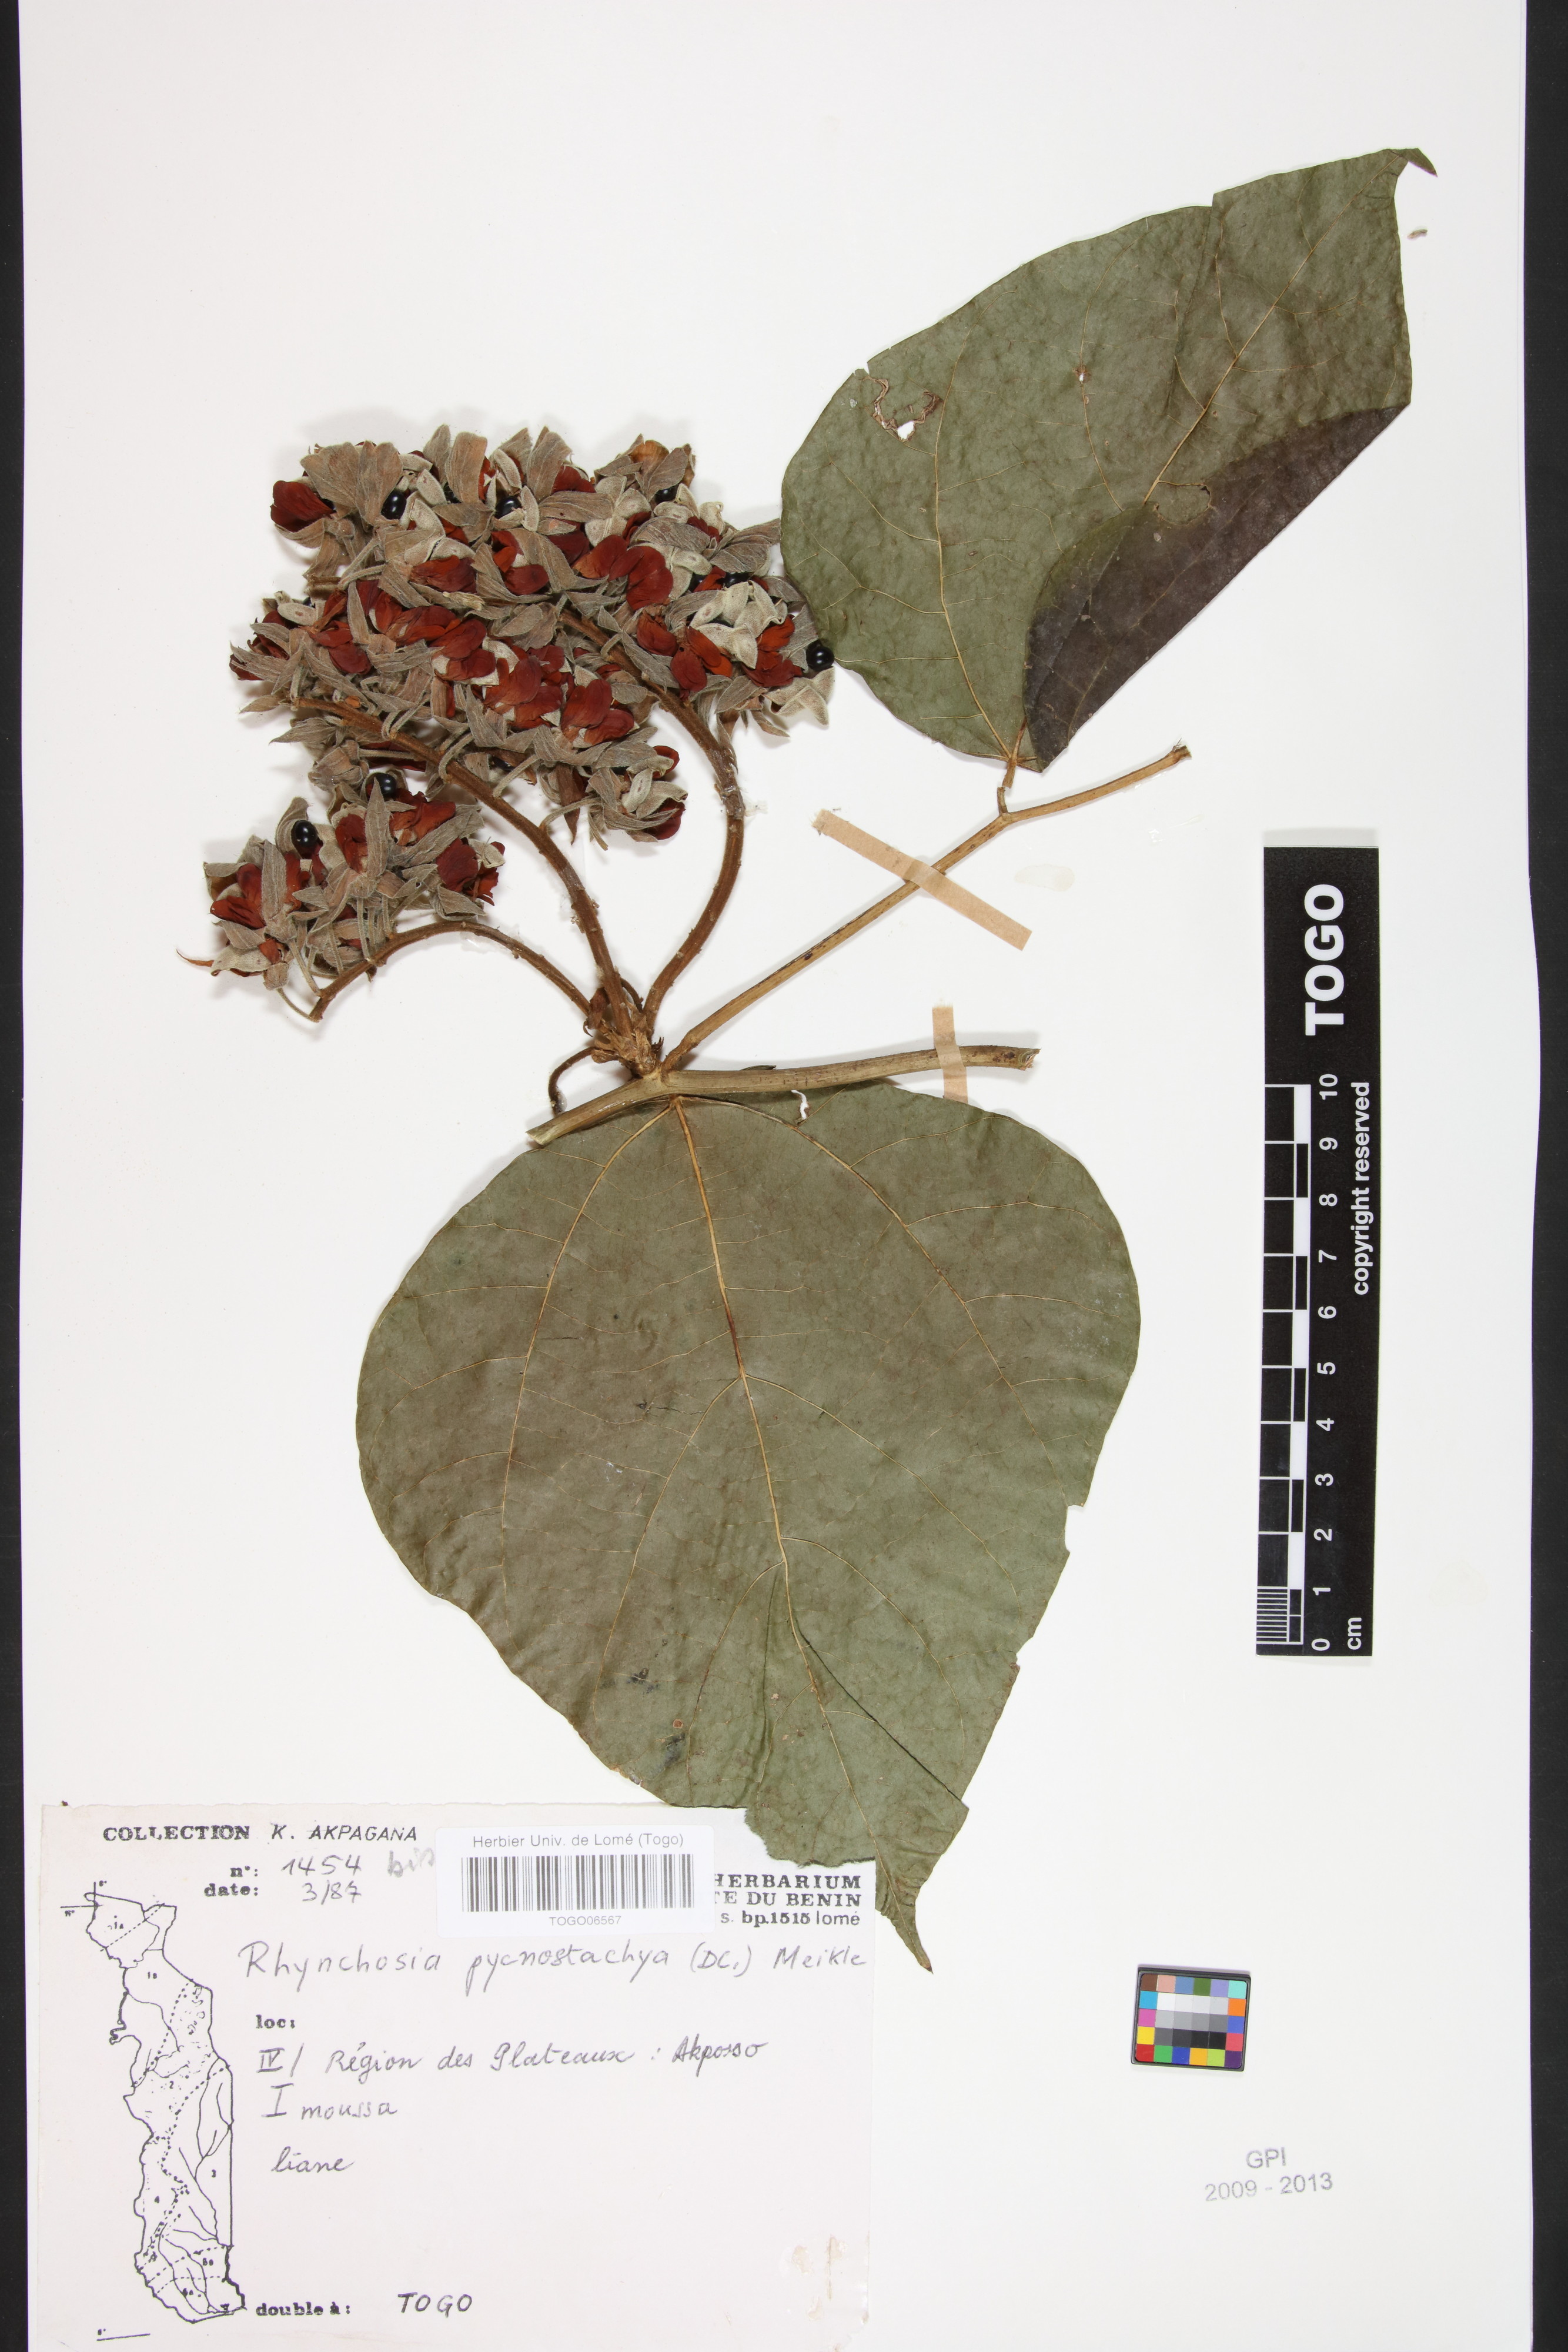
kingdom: Plantae
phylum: Tracheophyta
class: Magnoliopsida
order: Fabales
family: Fabaceae
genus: Rhynchosia
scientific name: Rhynchosia pycnostachya
